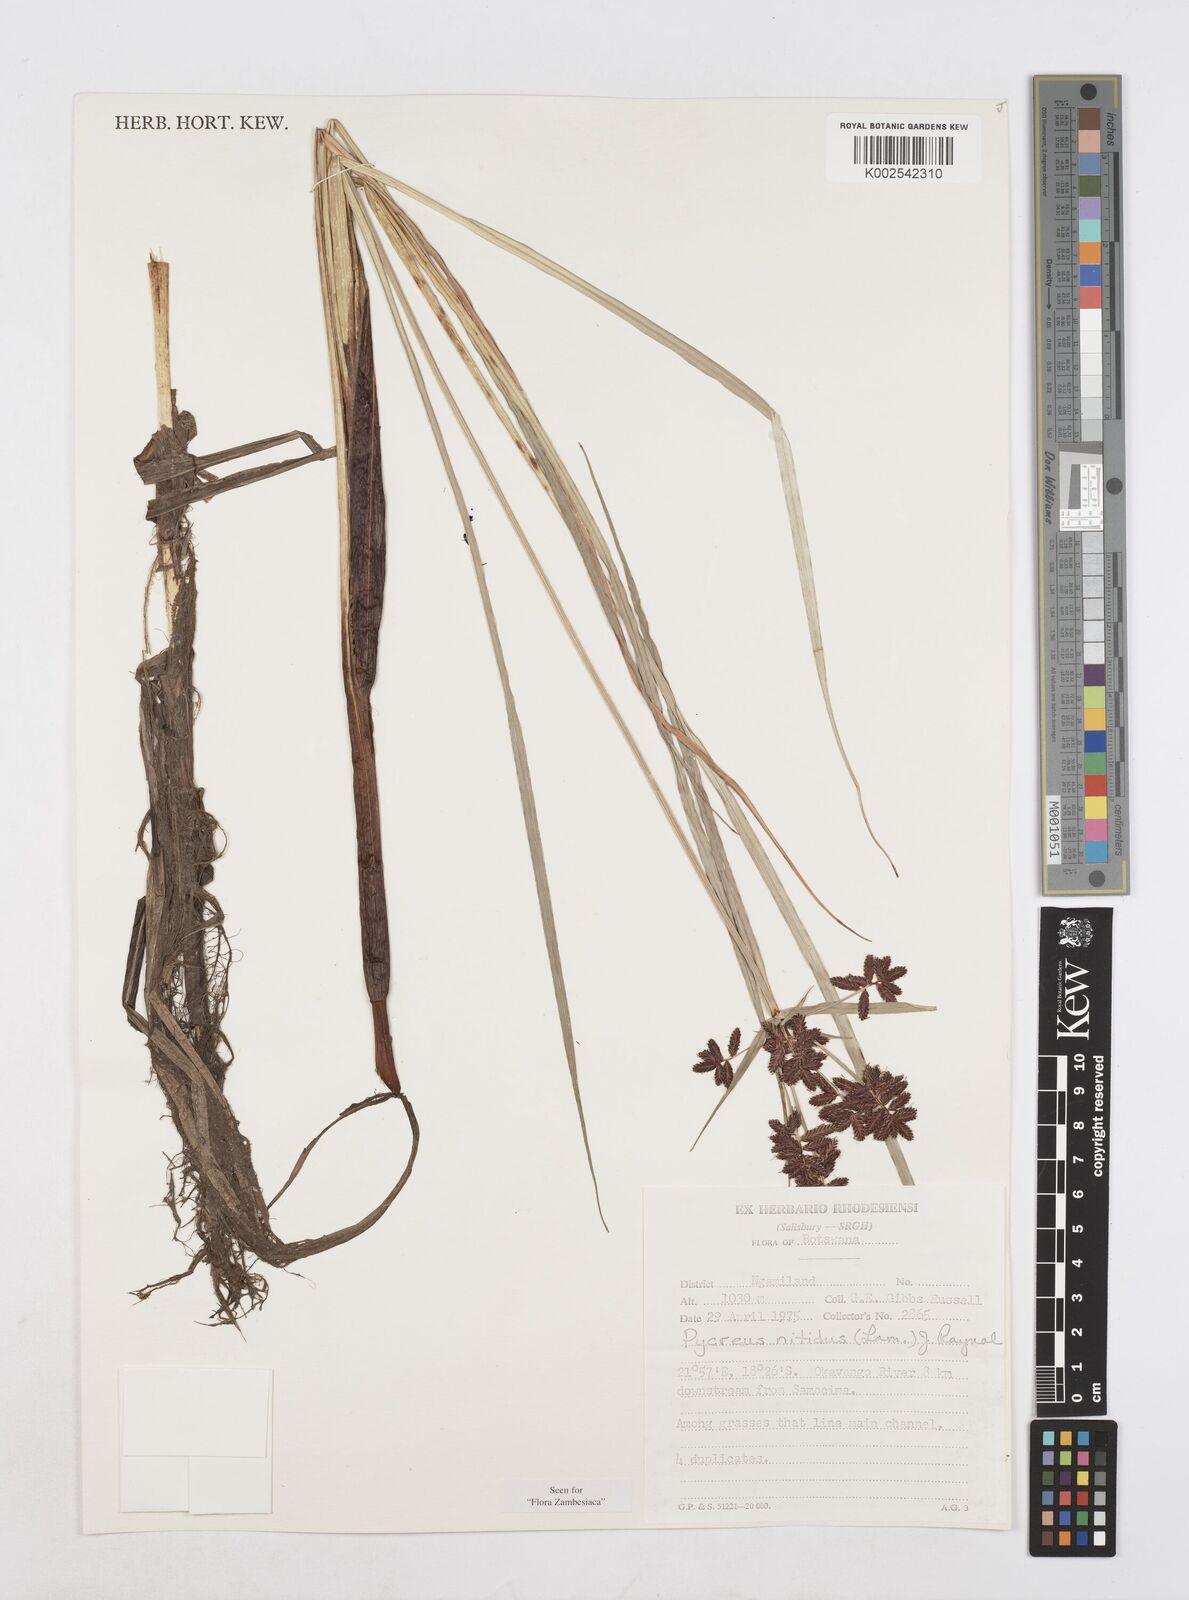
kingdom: Plantae
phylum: Tracheophyta
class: Liliopsida
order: Poales
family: Cyperaceae
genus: Cyperus
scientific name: Cyperus nitidus
